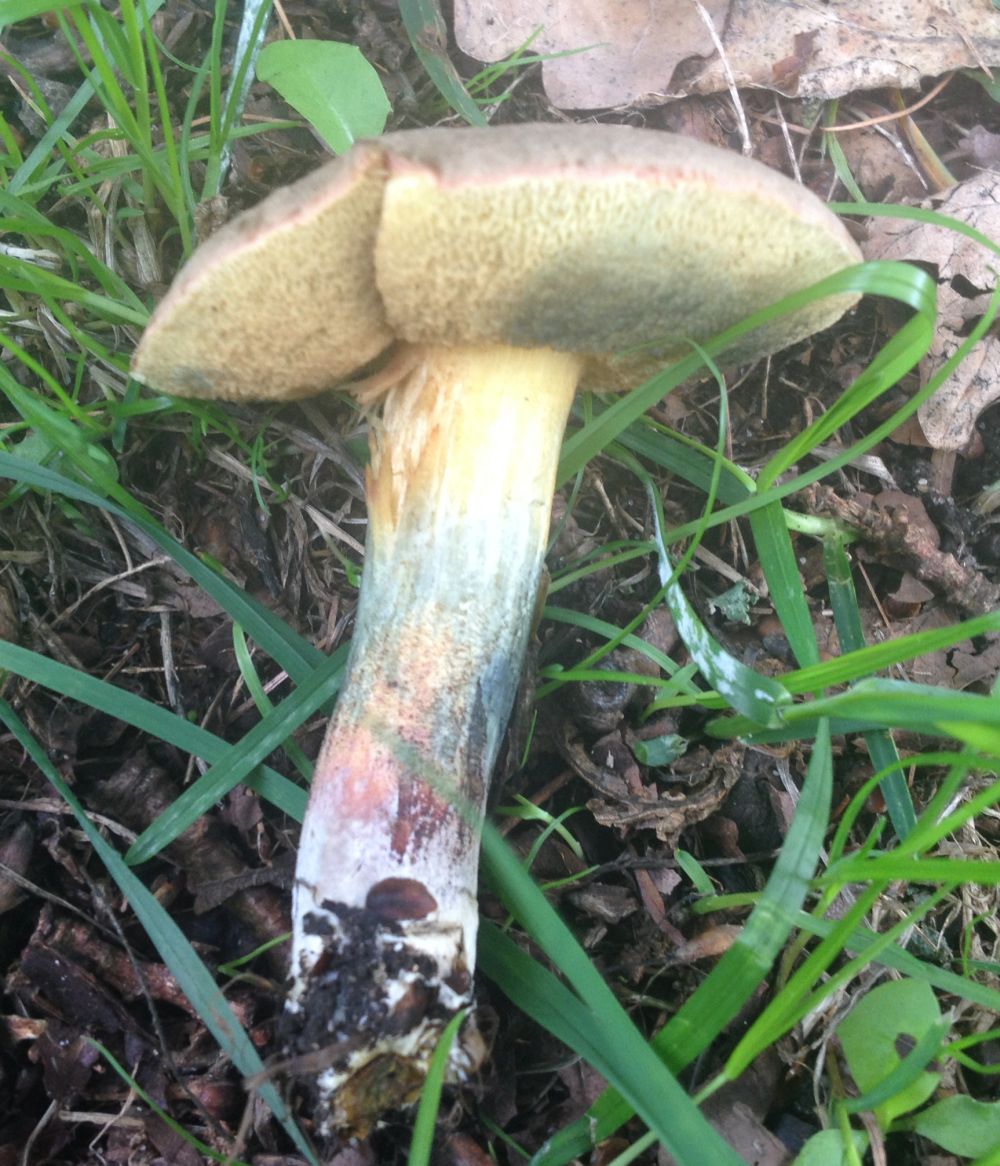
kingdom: Fungi
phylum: Basidiomycota
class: Agaricomycetes
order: Boletales
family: Boletaceae
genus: Xerocomellus
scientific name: Xerocomellus cisalpinus
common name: finsprukken rørhat
